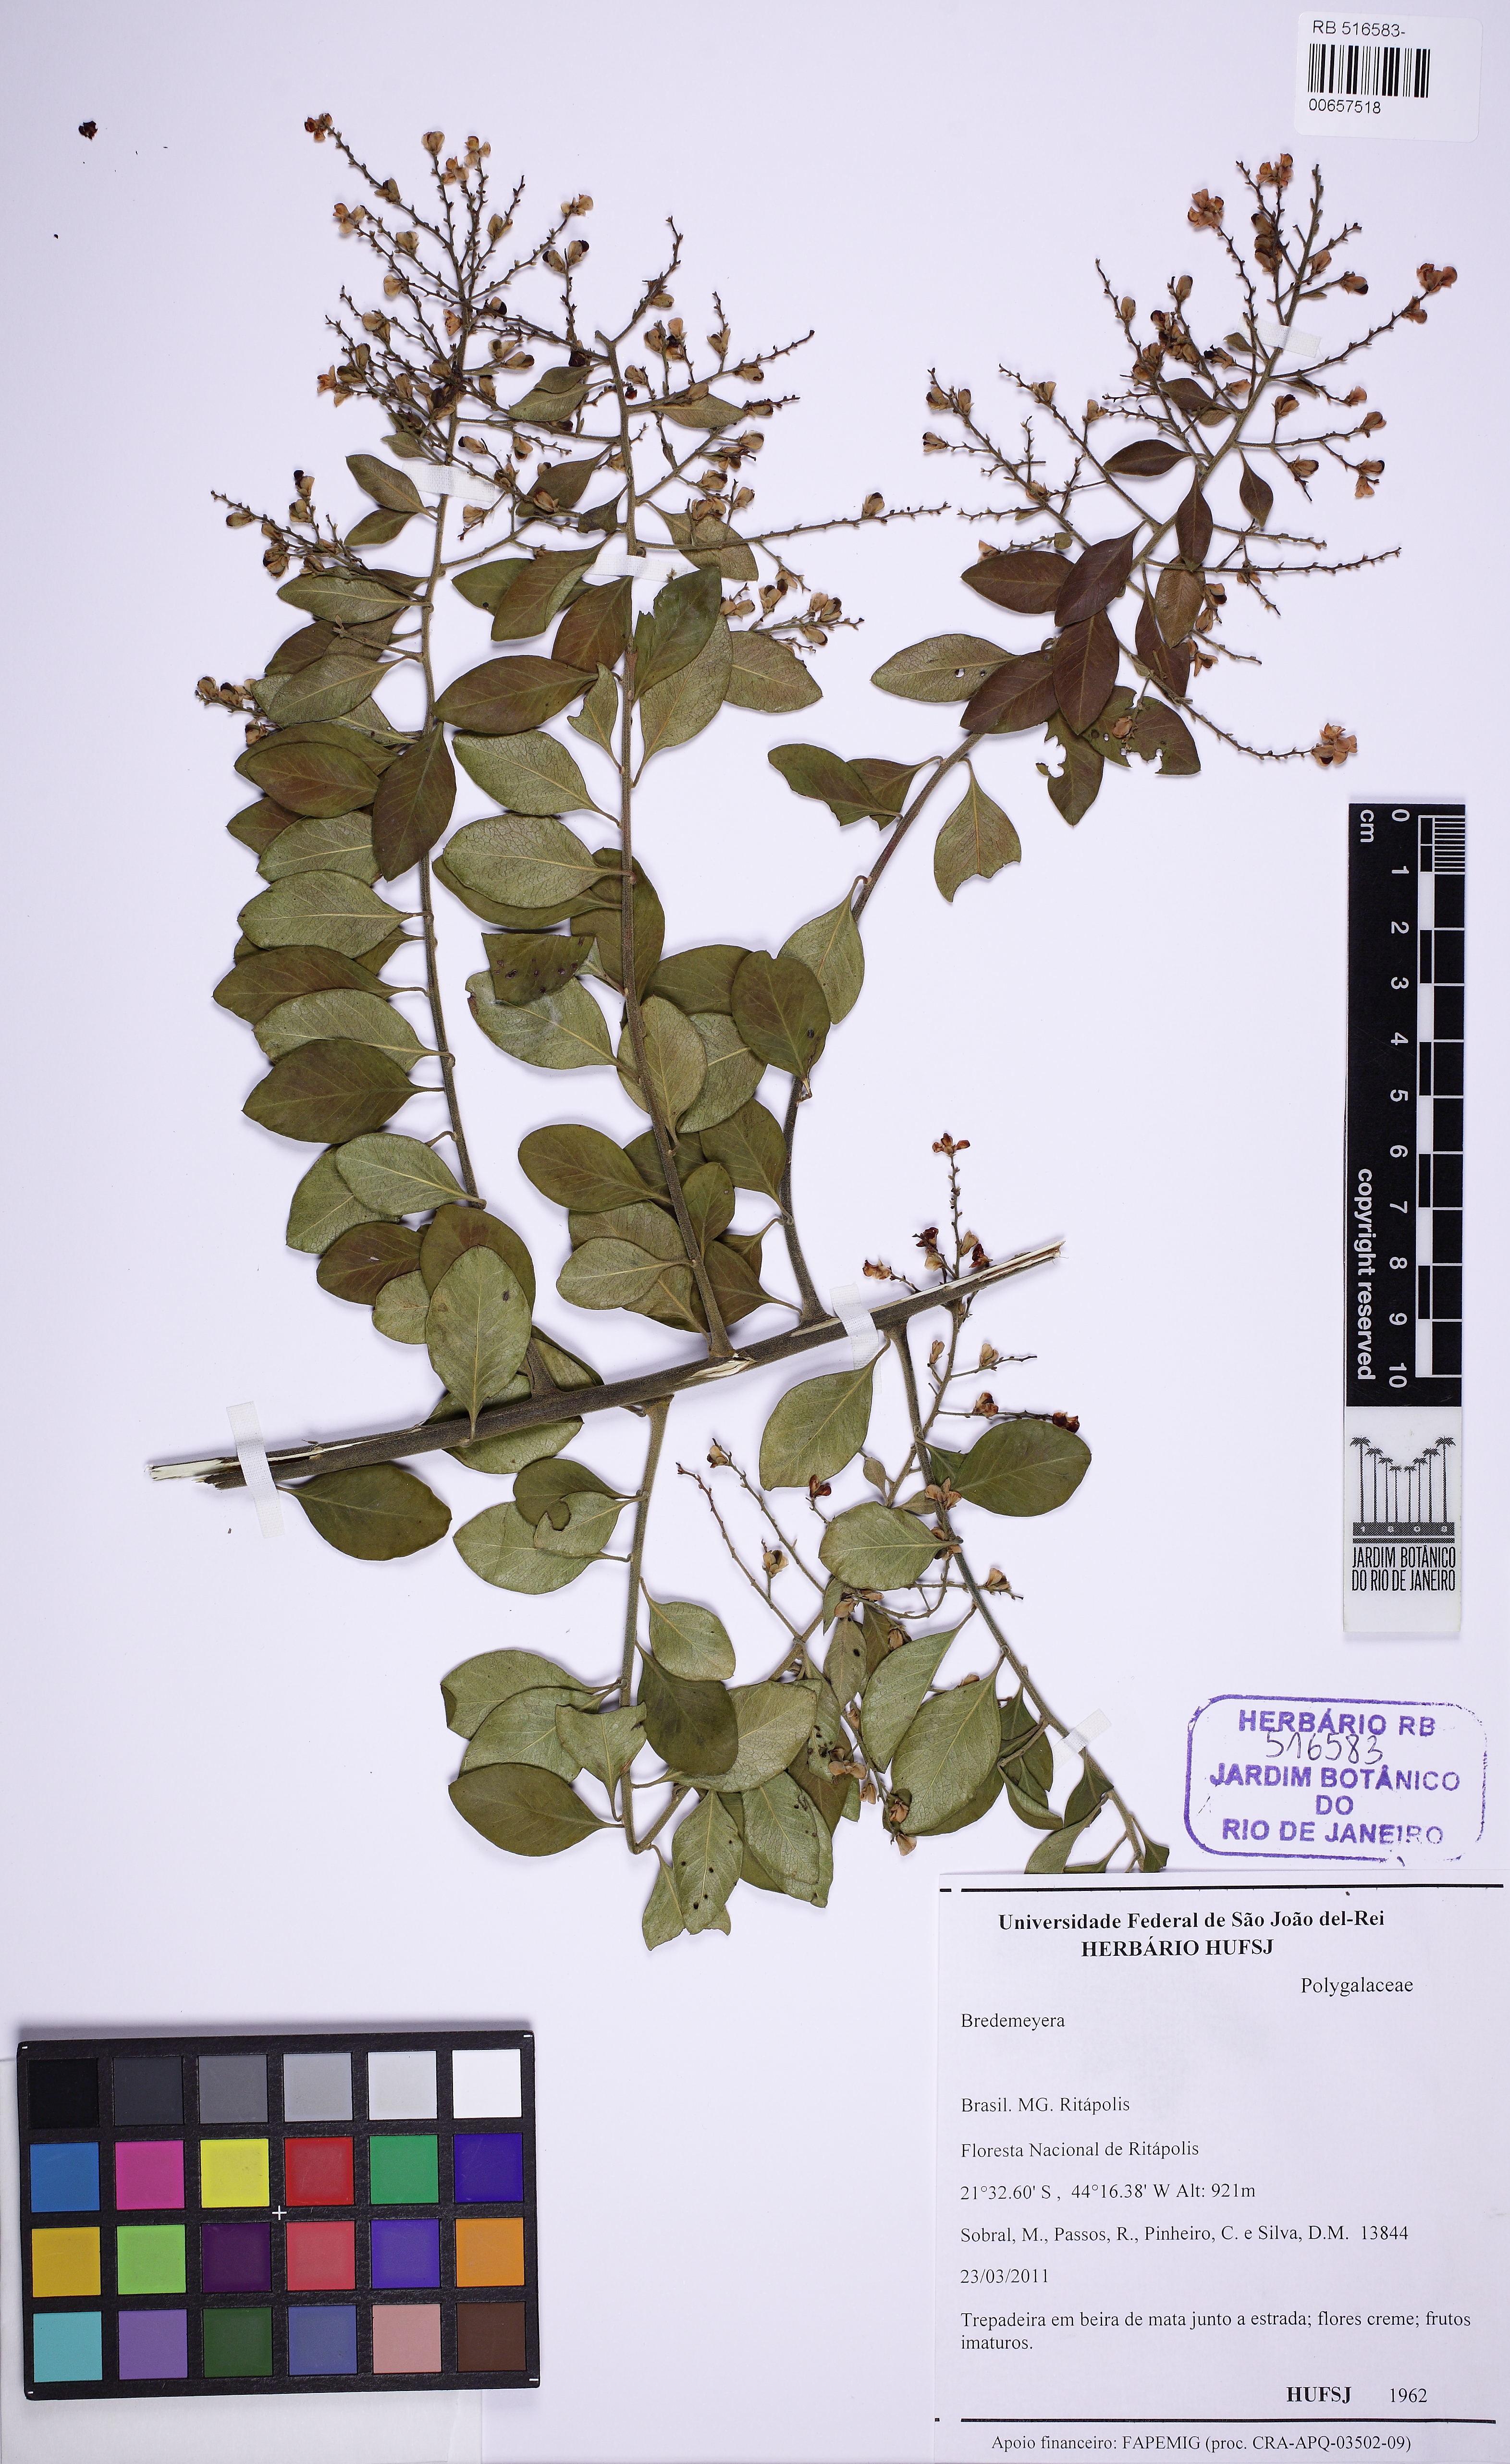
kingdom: Plantae
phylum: Tracheophyta
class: Magnoliopsida
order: Fabales
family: Polygalaceae
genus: Bredemeyera
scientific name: Bredemeyera
